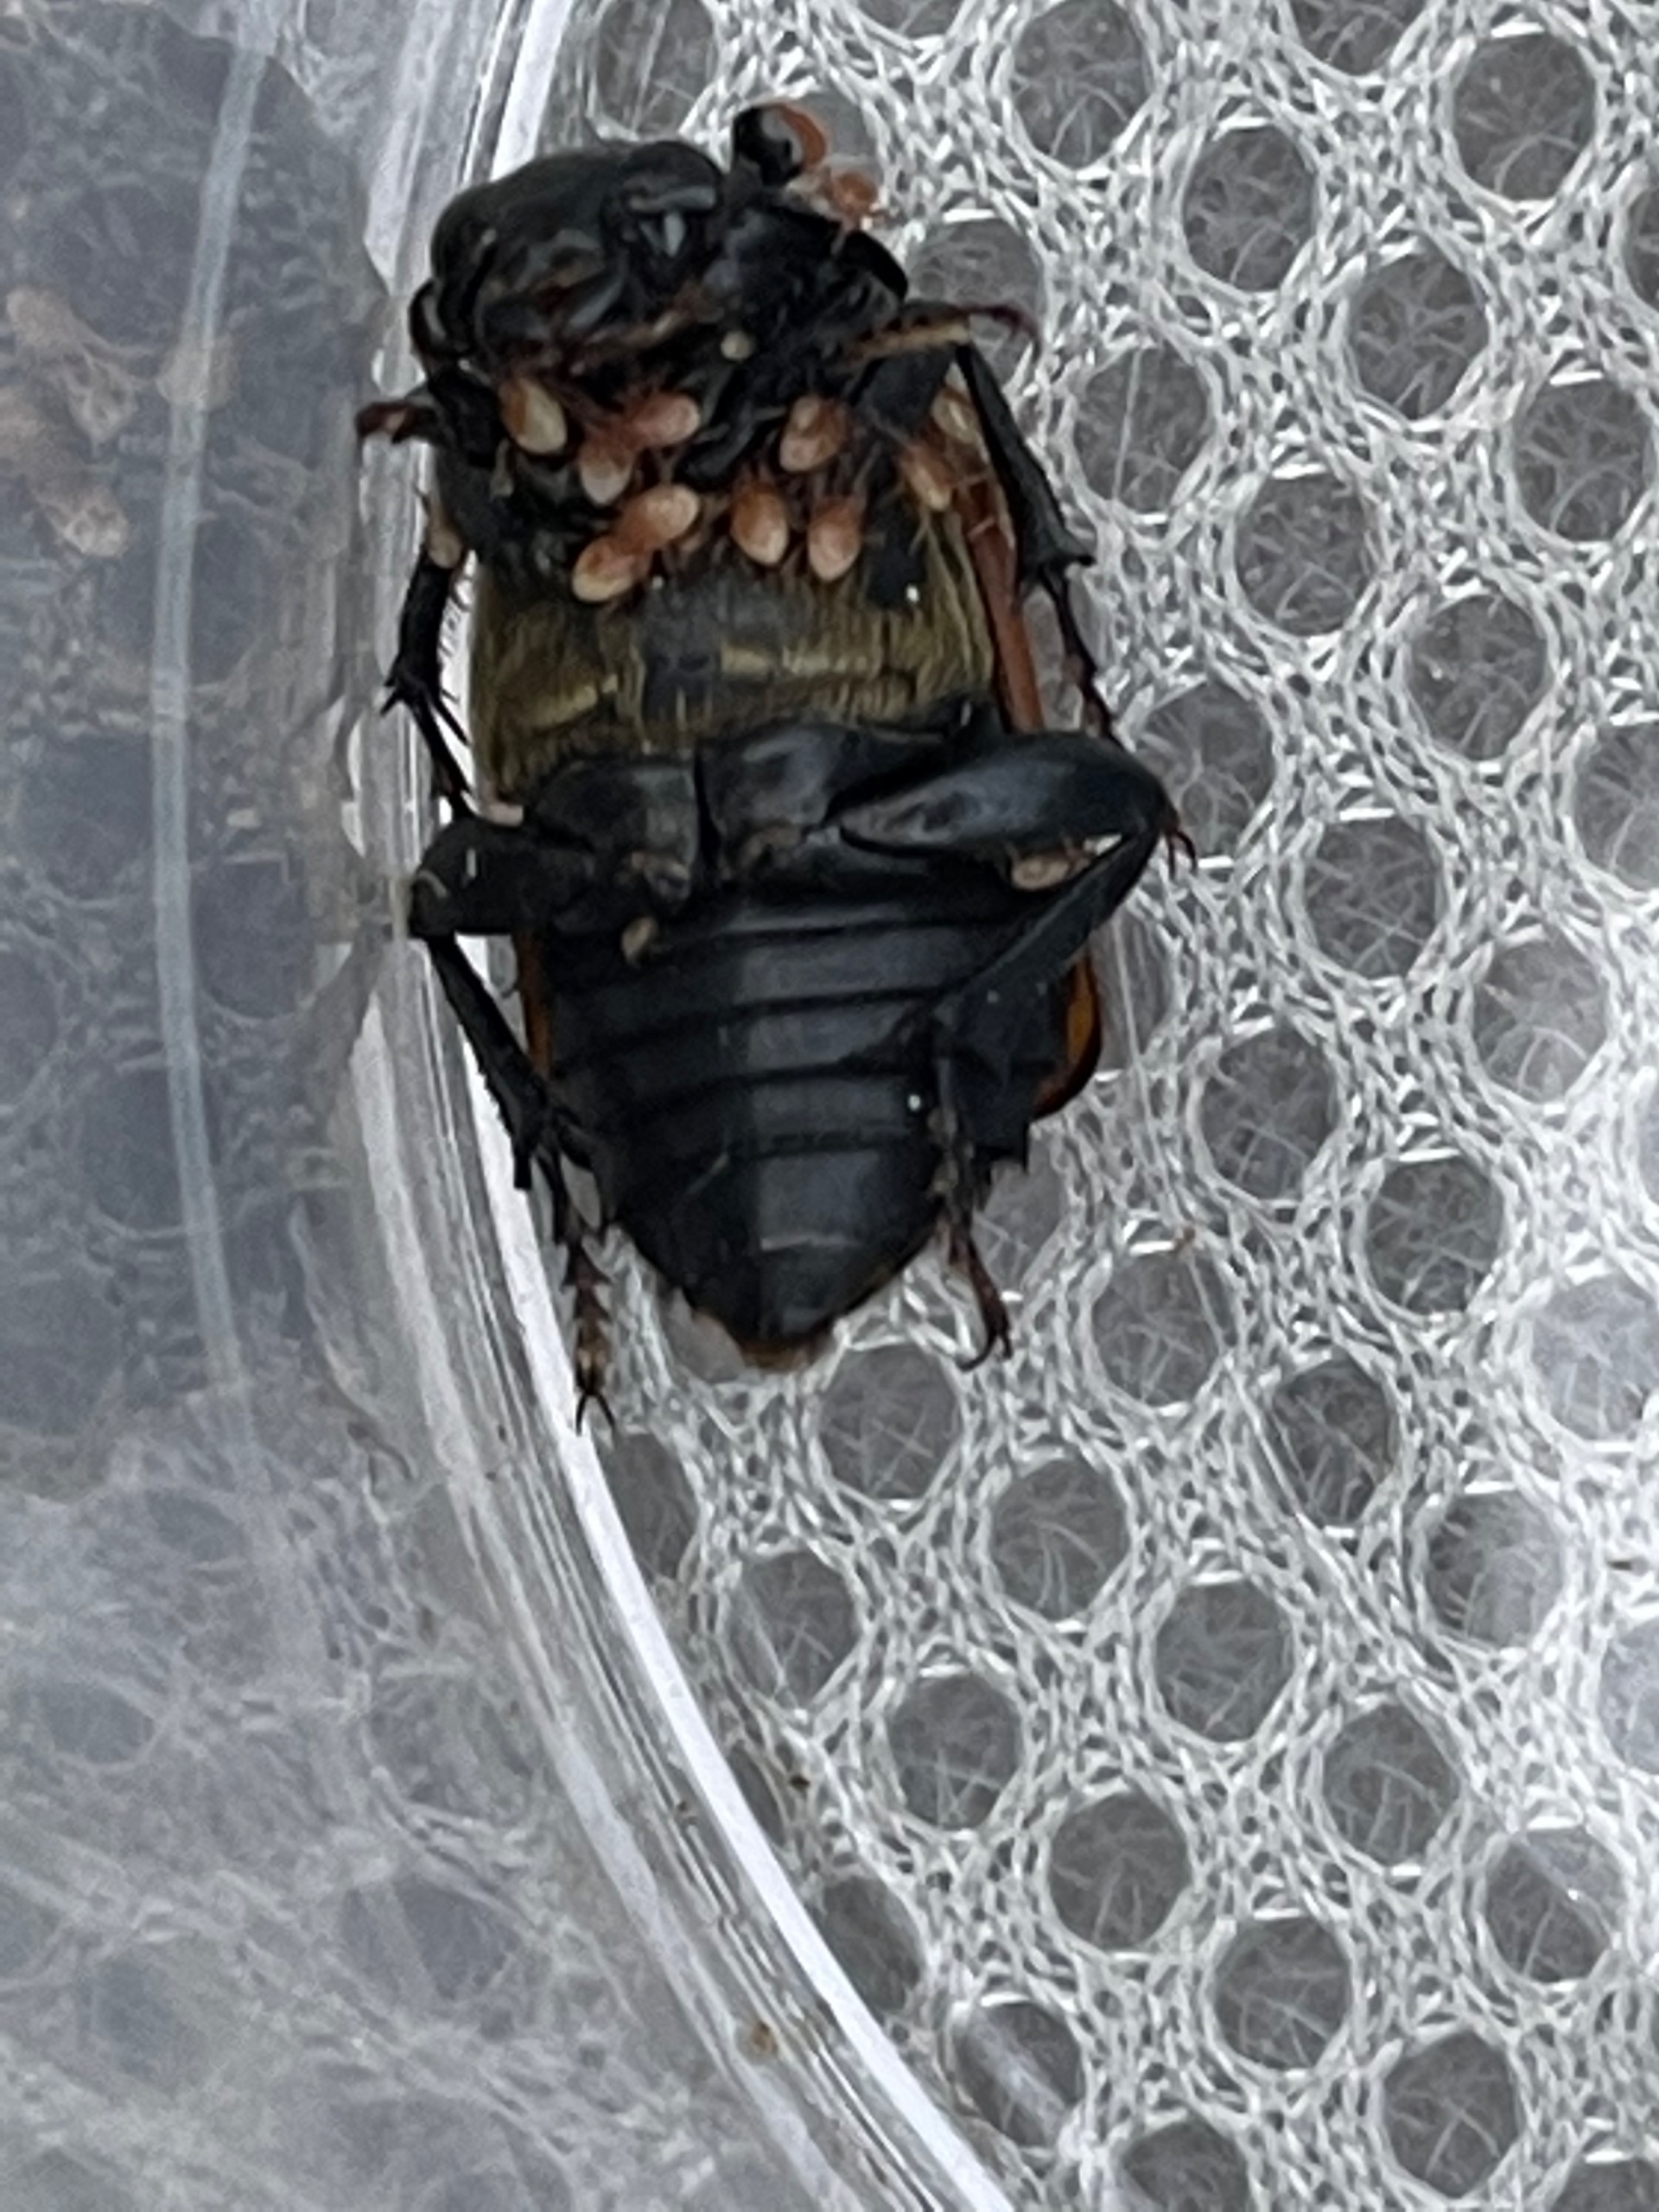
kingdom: Animalia
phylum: Arthropoda
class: Insecta
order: Coleoptera
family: Staphylinidae
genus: Nicrophorus
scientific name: Nicrophorus investigator
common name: Skovådselgraver
